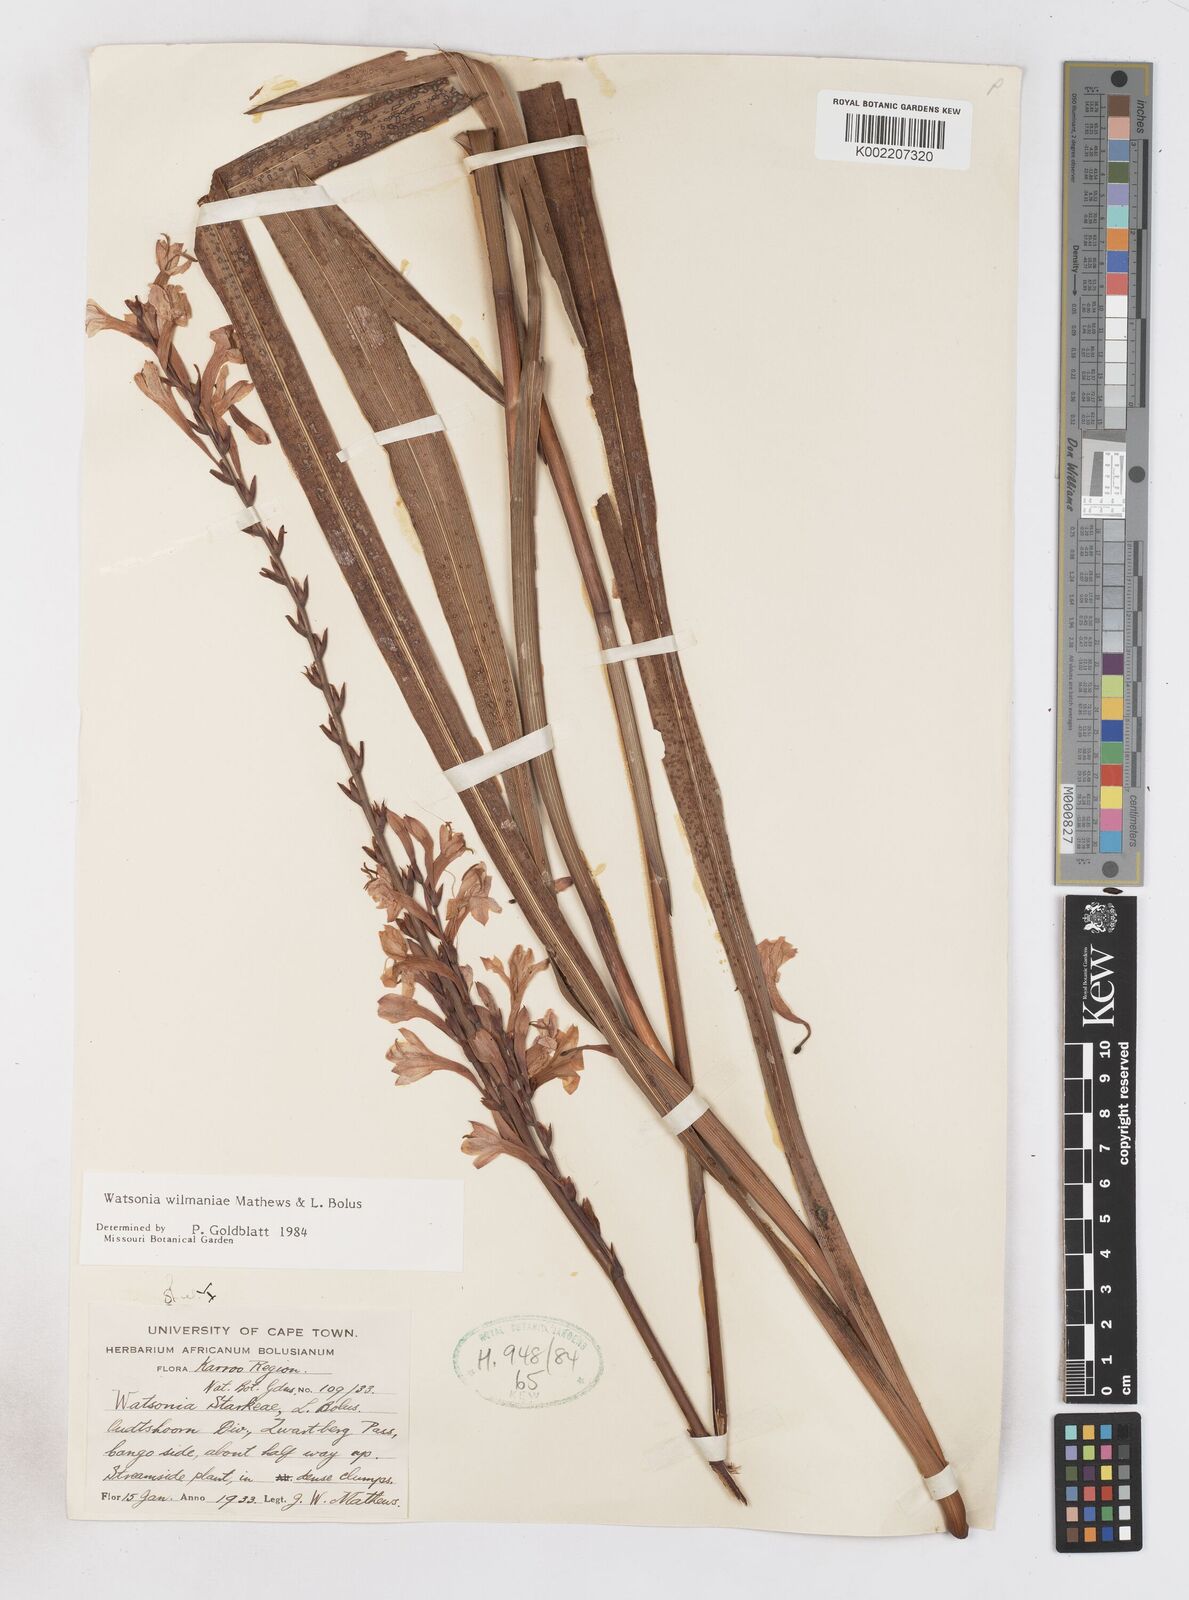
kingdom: Plantae
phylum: Tracheophyta
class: Liliopsida
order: Asparagales
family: Iridaceae
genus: Watsonia
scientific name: Watsonia wilmaniae
